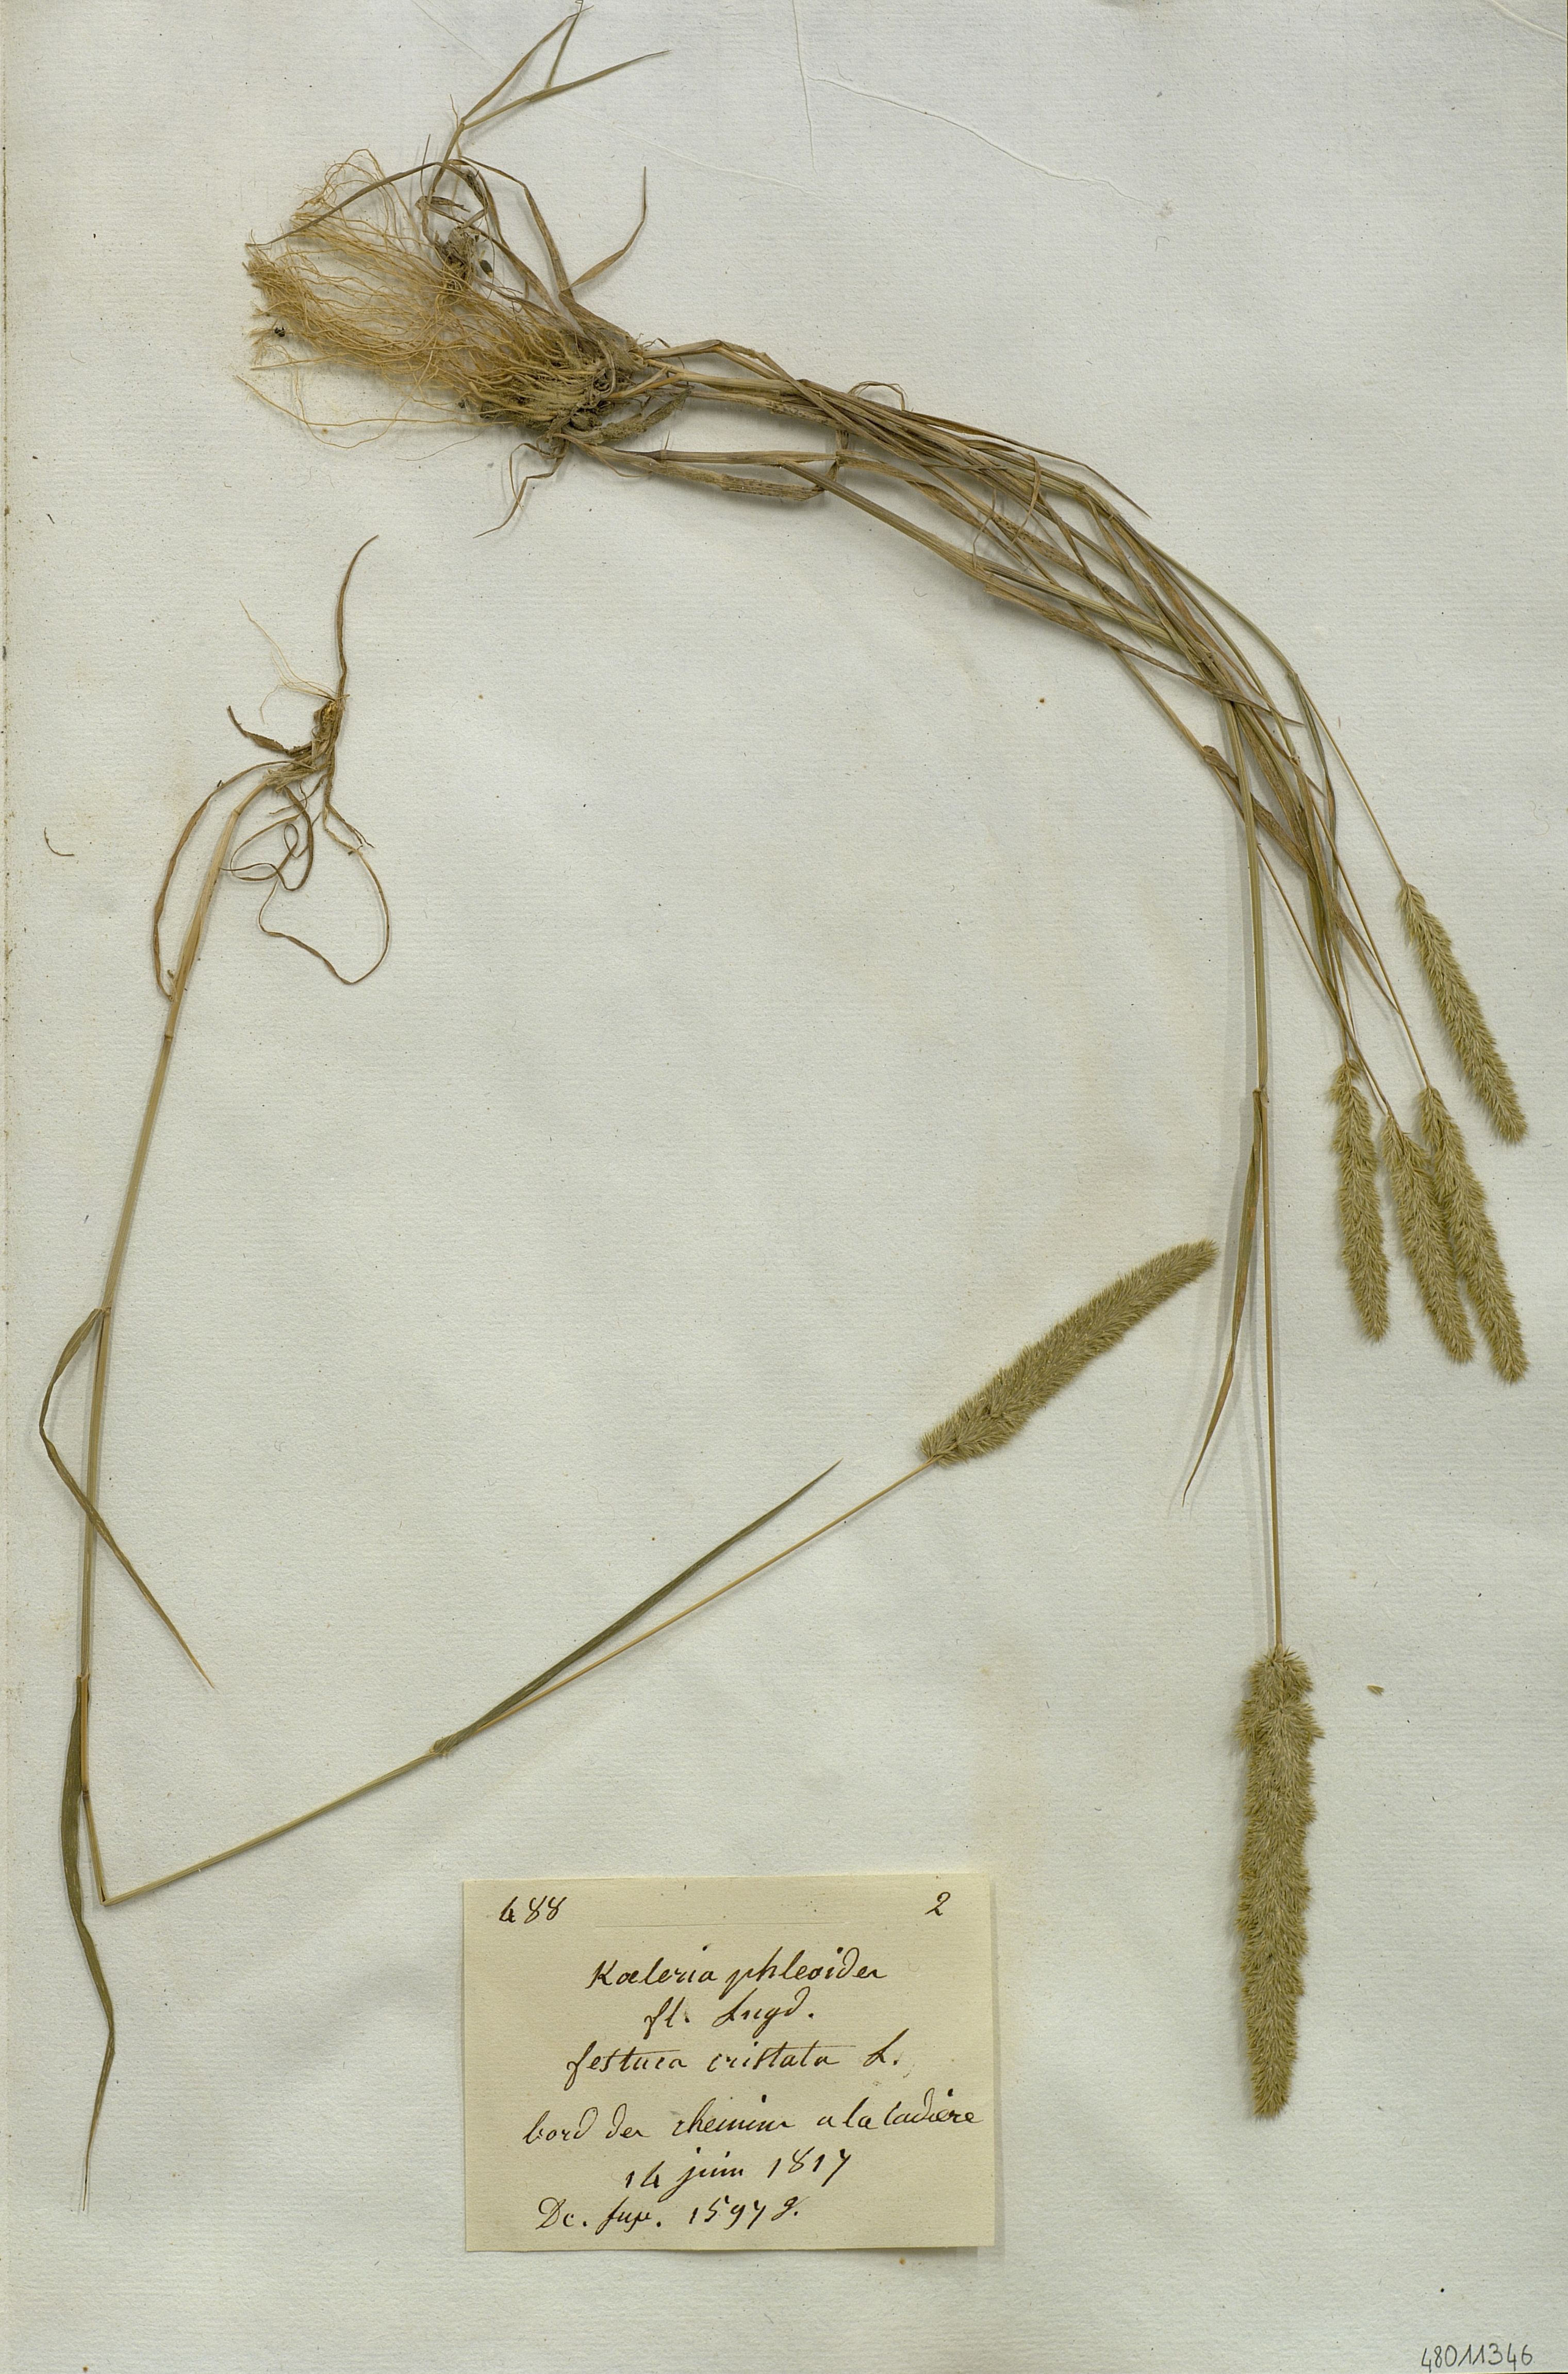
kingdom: Plantae
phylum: Tracheophyta
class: Liliopsida
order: Poales
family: Poaceae
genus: Rostraria
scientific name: Rostraria cristata
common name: Mediterranean hair-grass
